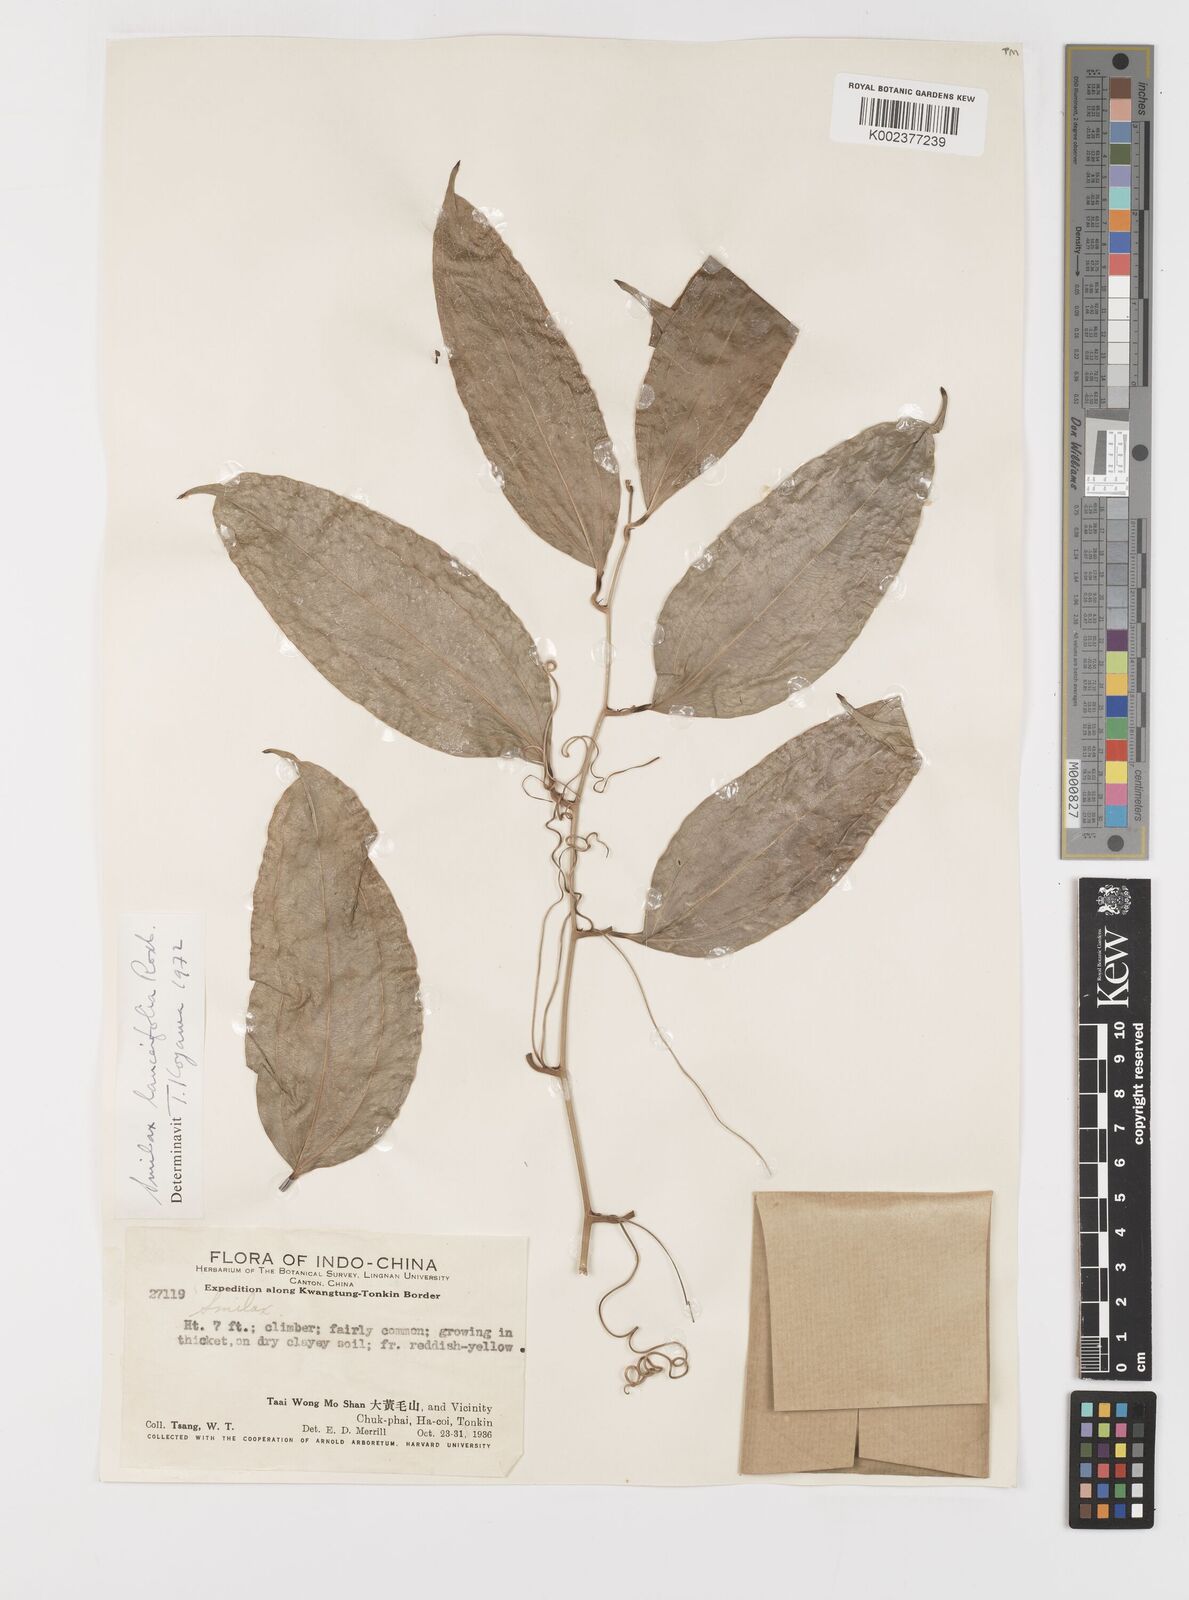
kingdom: Plantae
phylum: Tracheophyta
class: Liliopsida
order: Liliales
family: Smilacaceae
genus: Smilax
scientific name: Smilax lanceifolia
